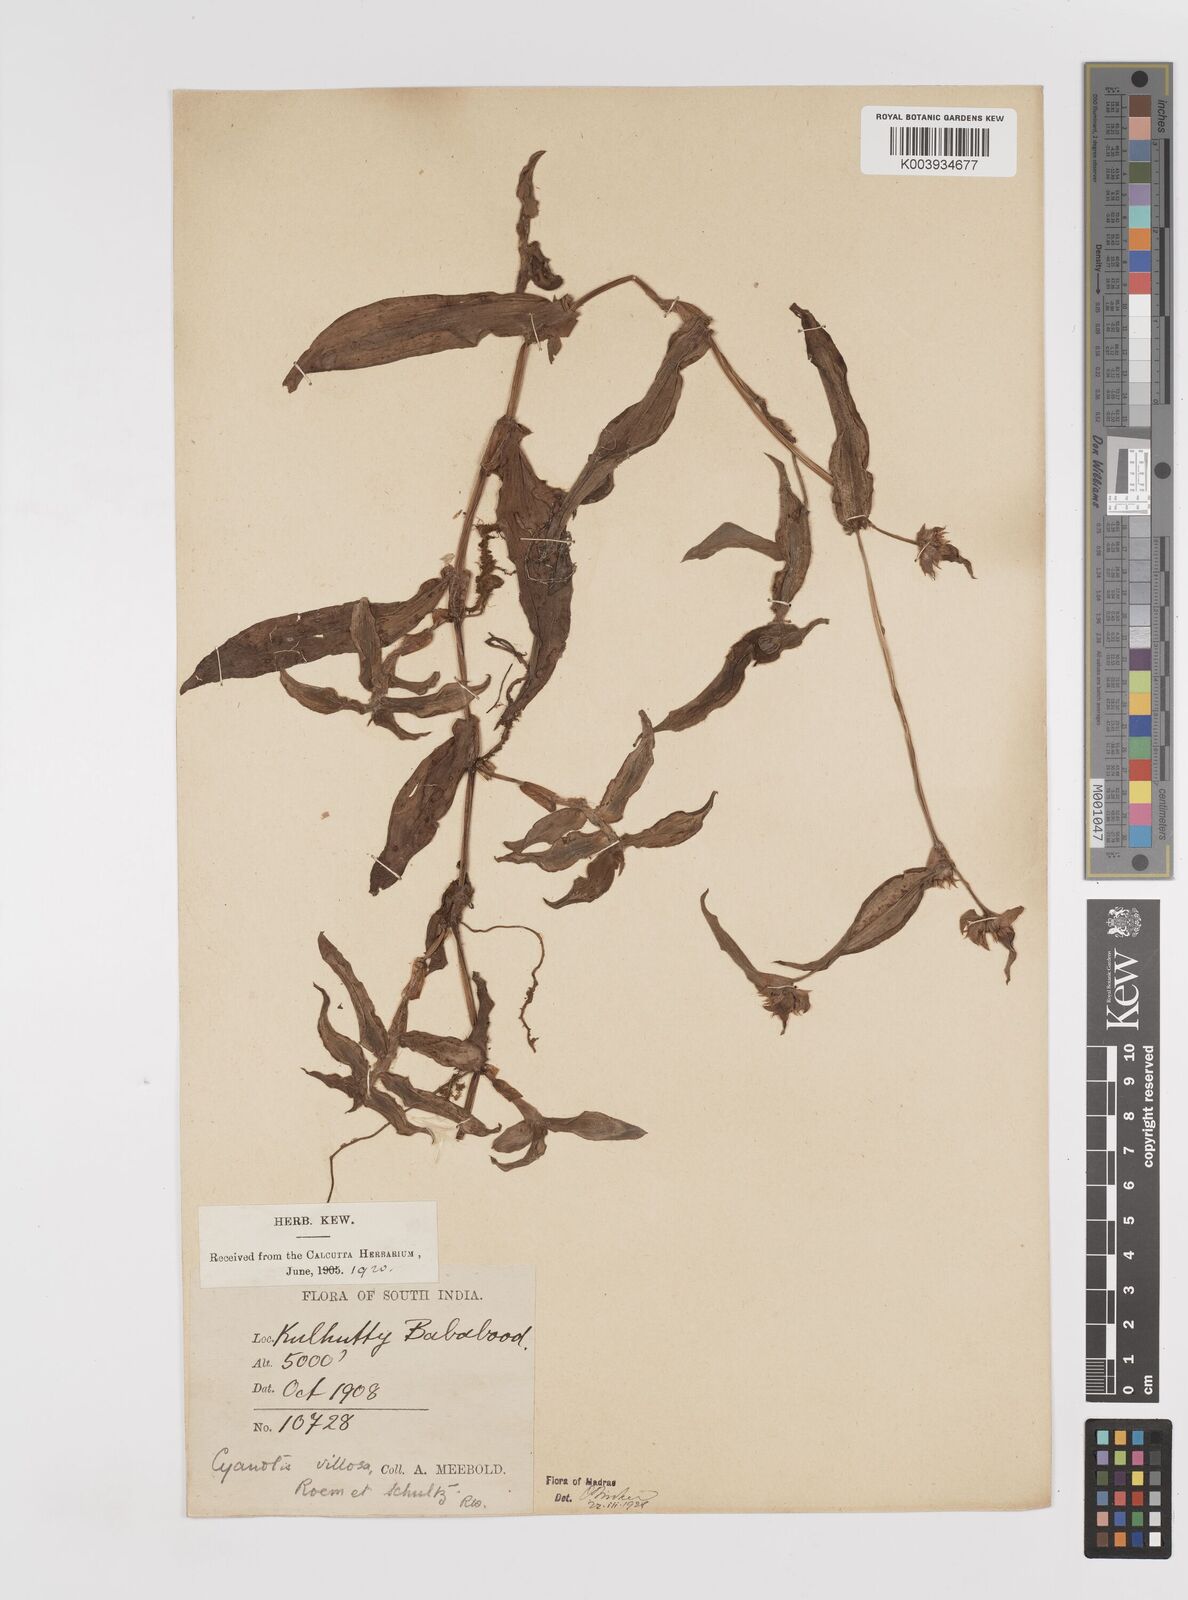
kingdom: Plantae
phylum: Tracheophyta
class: Liliopsida
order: Commelinales
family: Commelinaceae
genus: Cyanotis
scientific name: Cyanotis villosa
